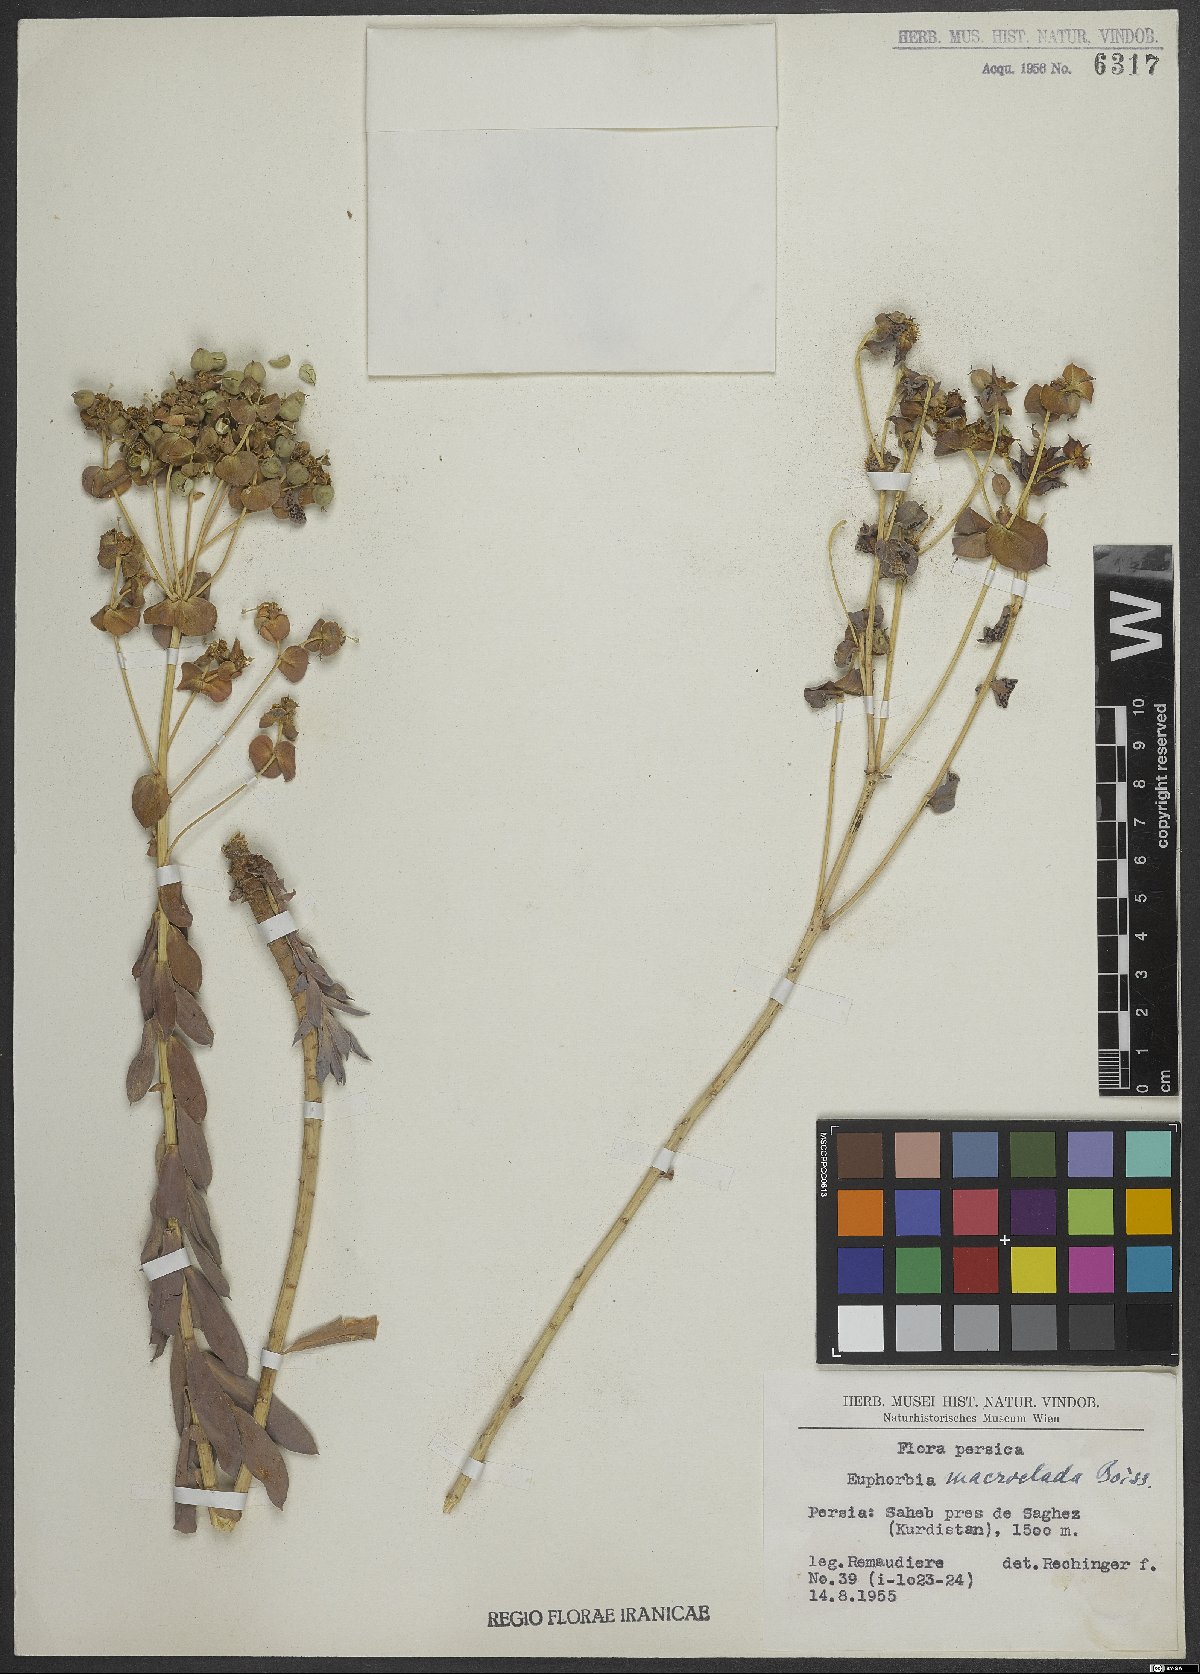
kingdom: Plantae
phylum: Tracheophyta
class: Magnoliopsida
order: Malpighiales
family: Euphorbiaceae
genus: Euphorbia
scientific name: Euphorbia macroclada
